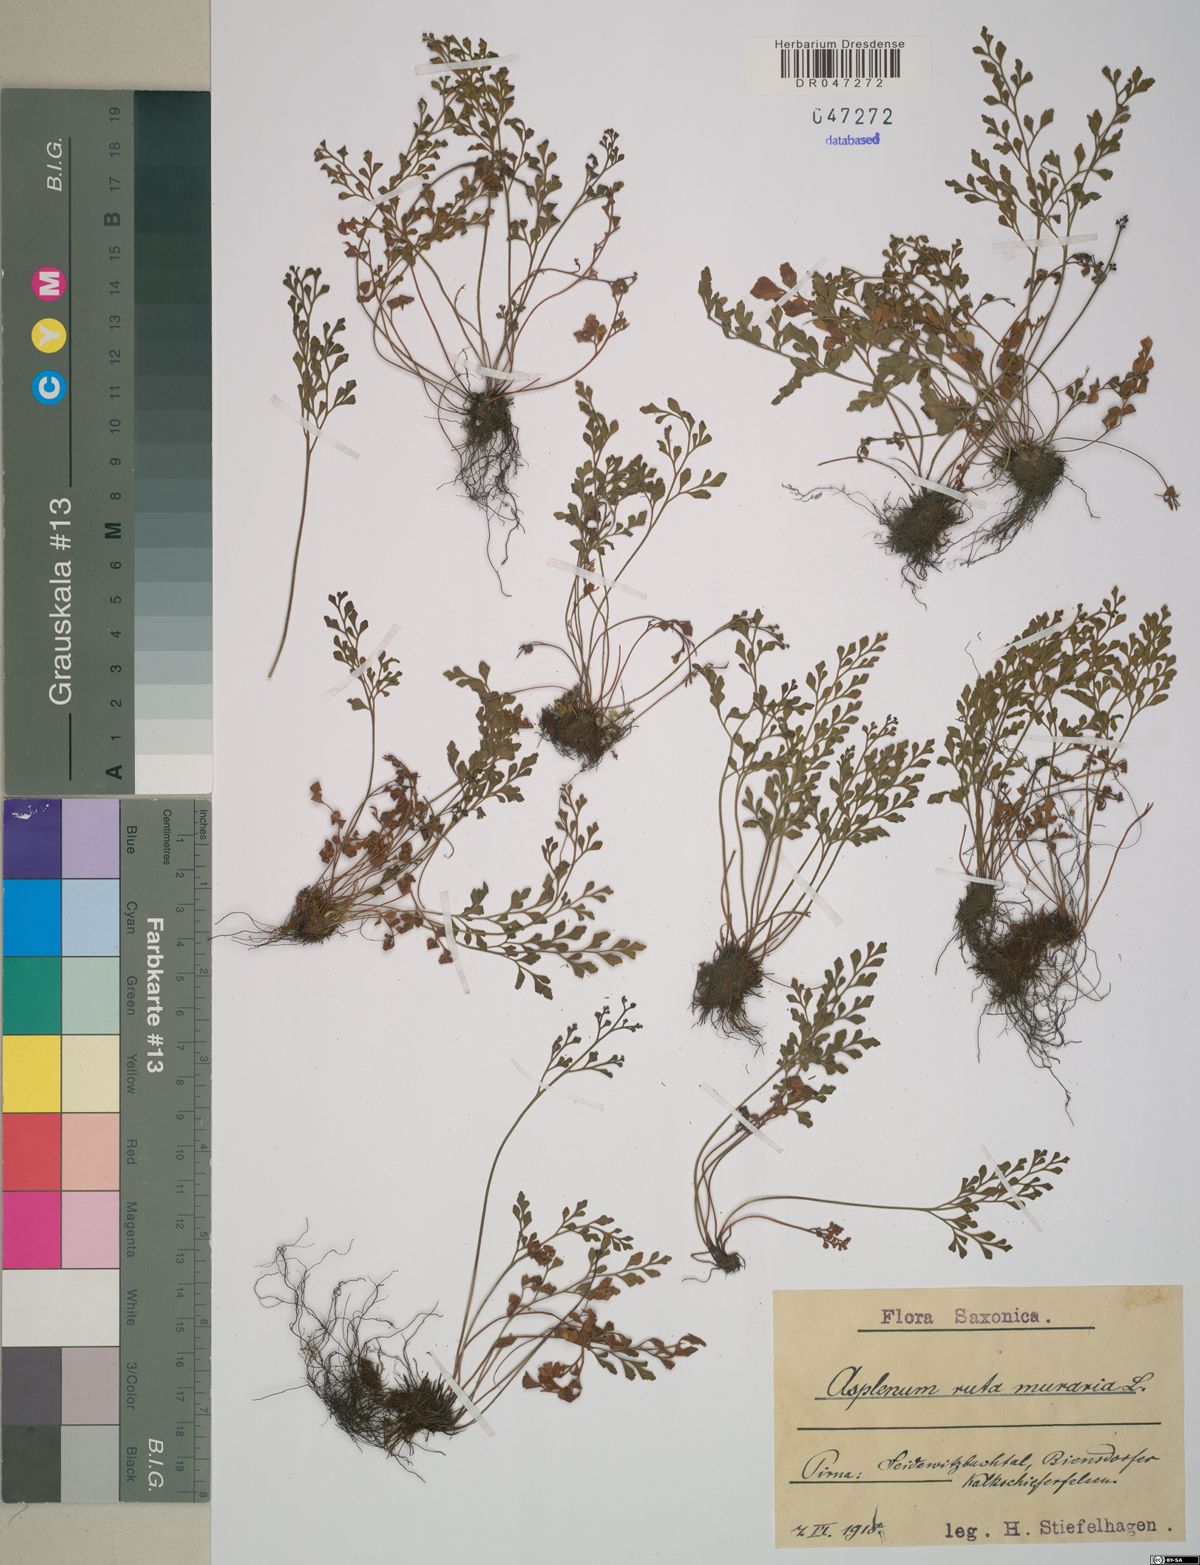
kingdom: Plantae
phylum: Tracheophyta
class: Polypodiopsida
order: Polypodiales
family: Aspleniaceae
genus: Asplenium
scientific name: Asplenium ruta-muraria
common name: Wall-rue
